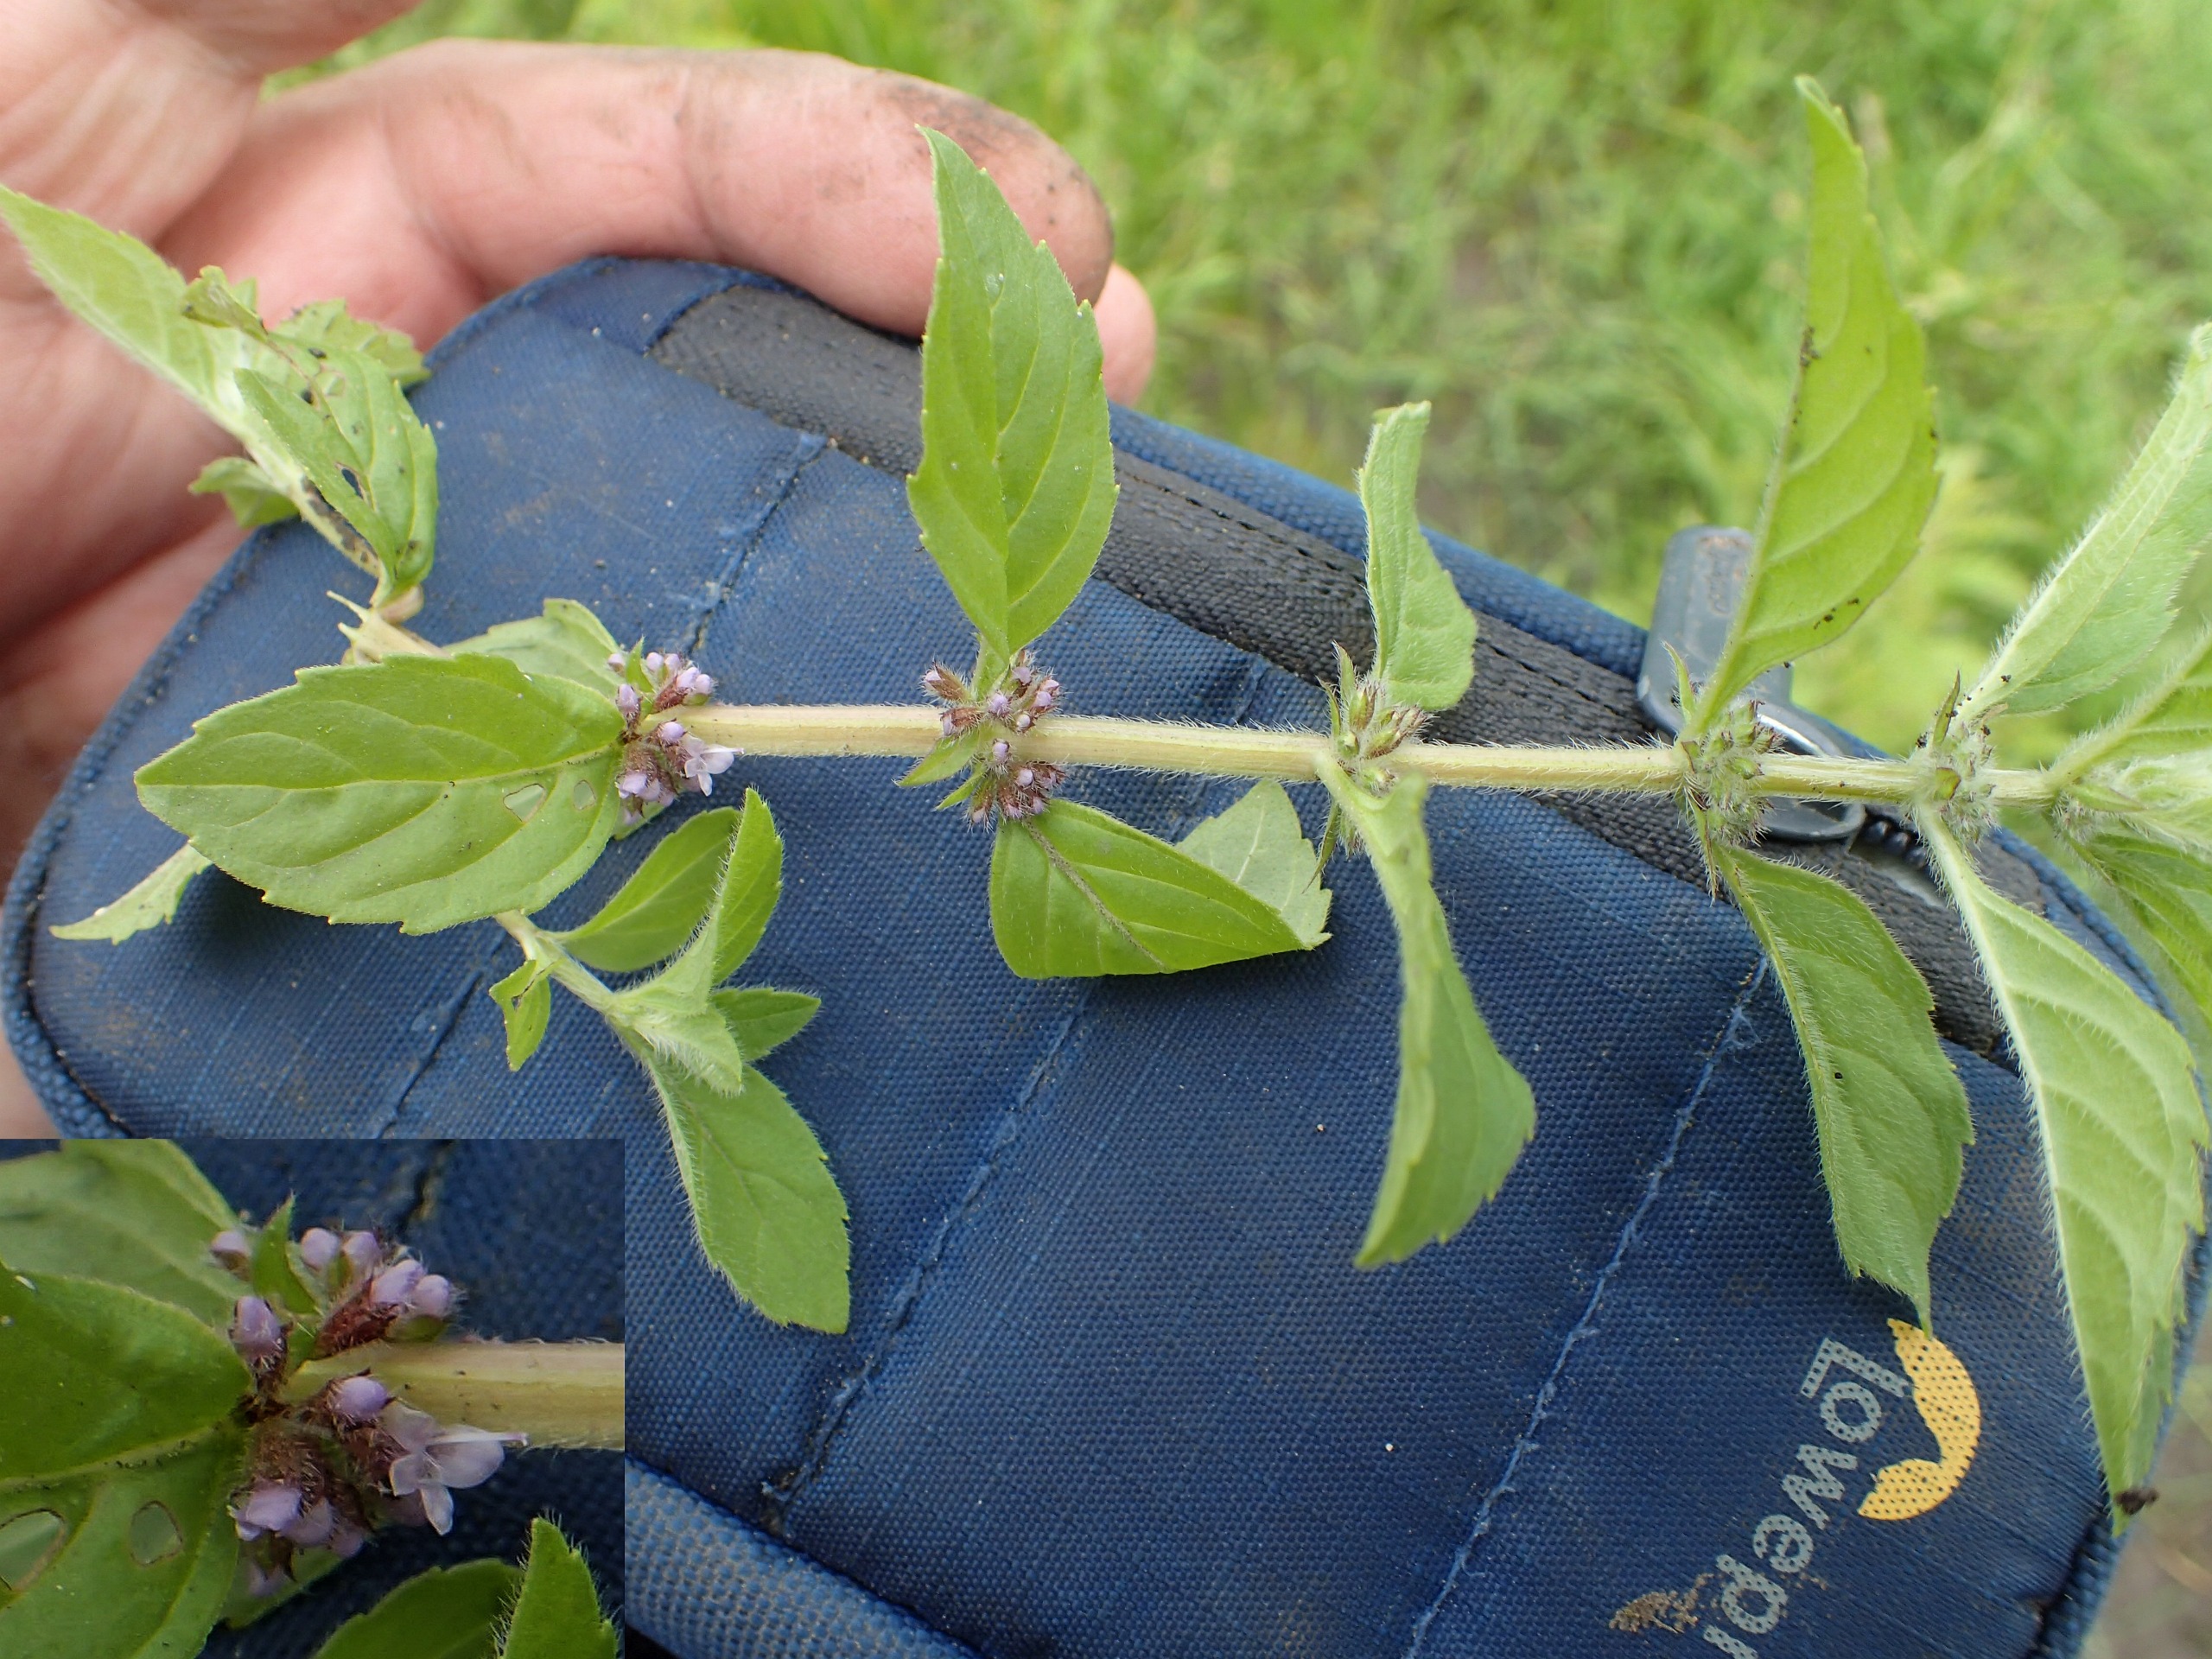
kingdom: Plantae
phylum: Tracheophyta
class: Magnoliopsida
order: Lamiales
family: Lamiaceae
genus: Mentha
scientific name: Mentha verticillata
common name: Krans-mynte
